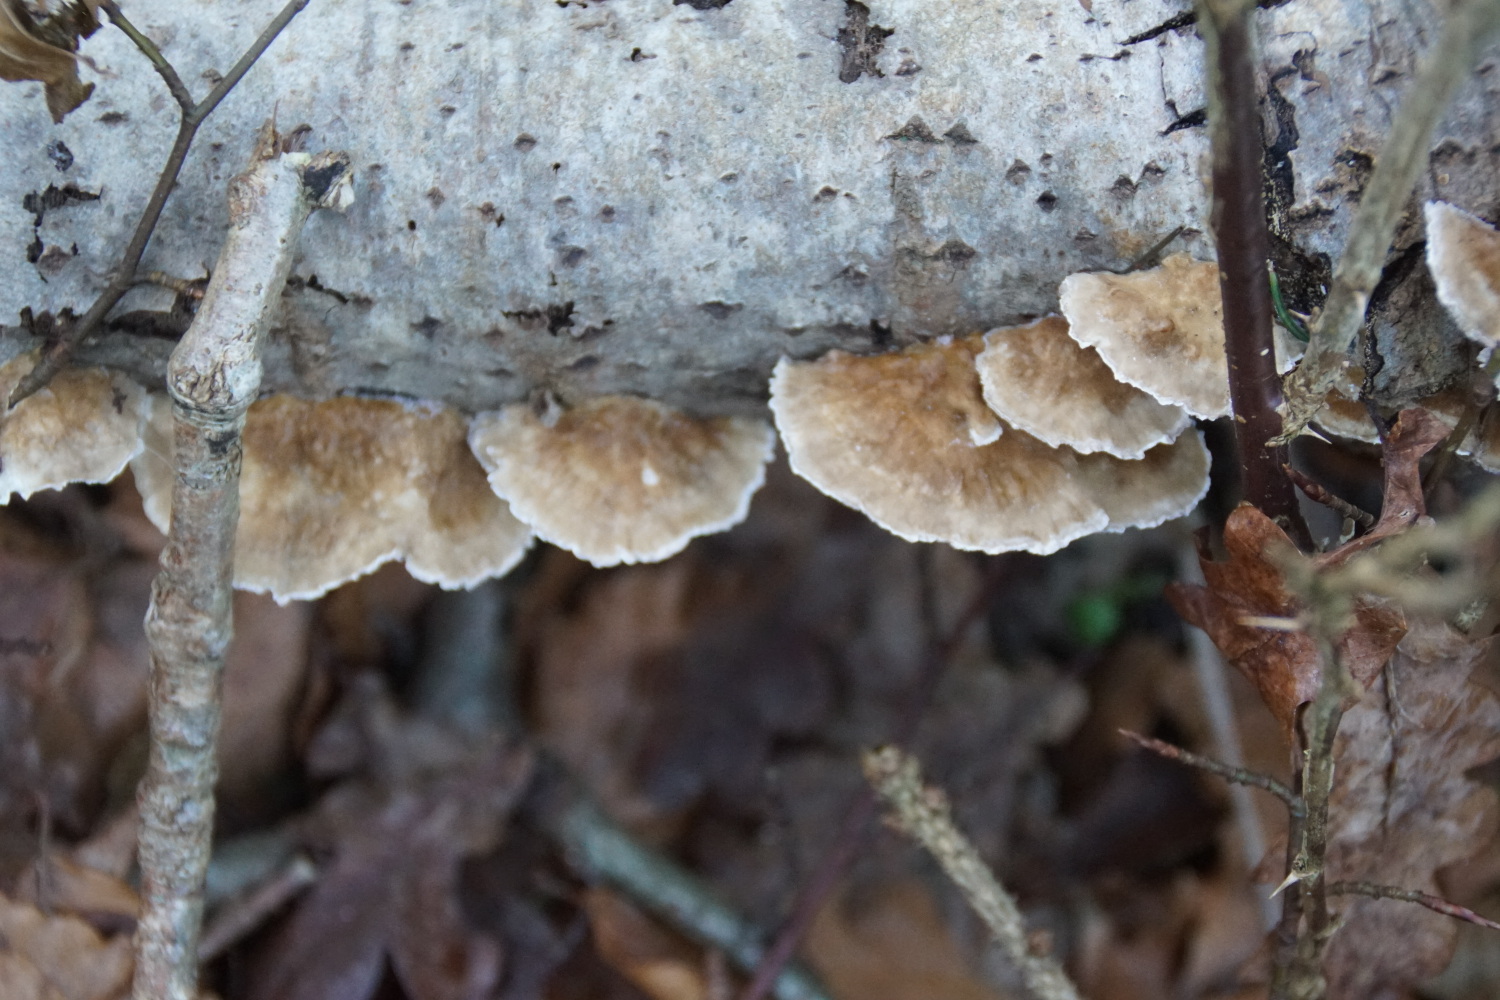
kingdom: Fungi
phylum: Basidiomycota
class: Agaricomycetes
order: Polyporales
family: Polyporaceae
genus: Trametes
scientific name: Trametes ochracea
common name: bæltet læderporesvamp
